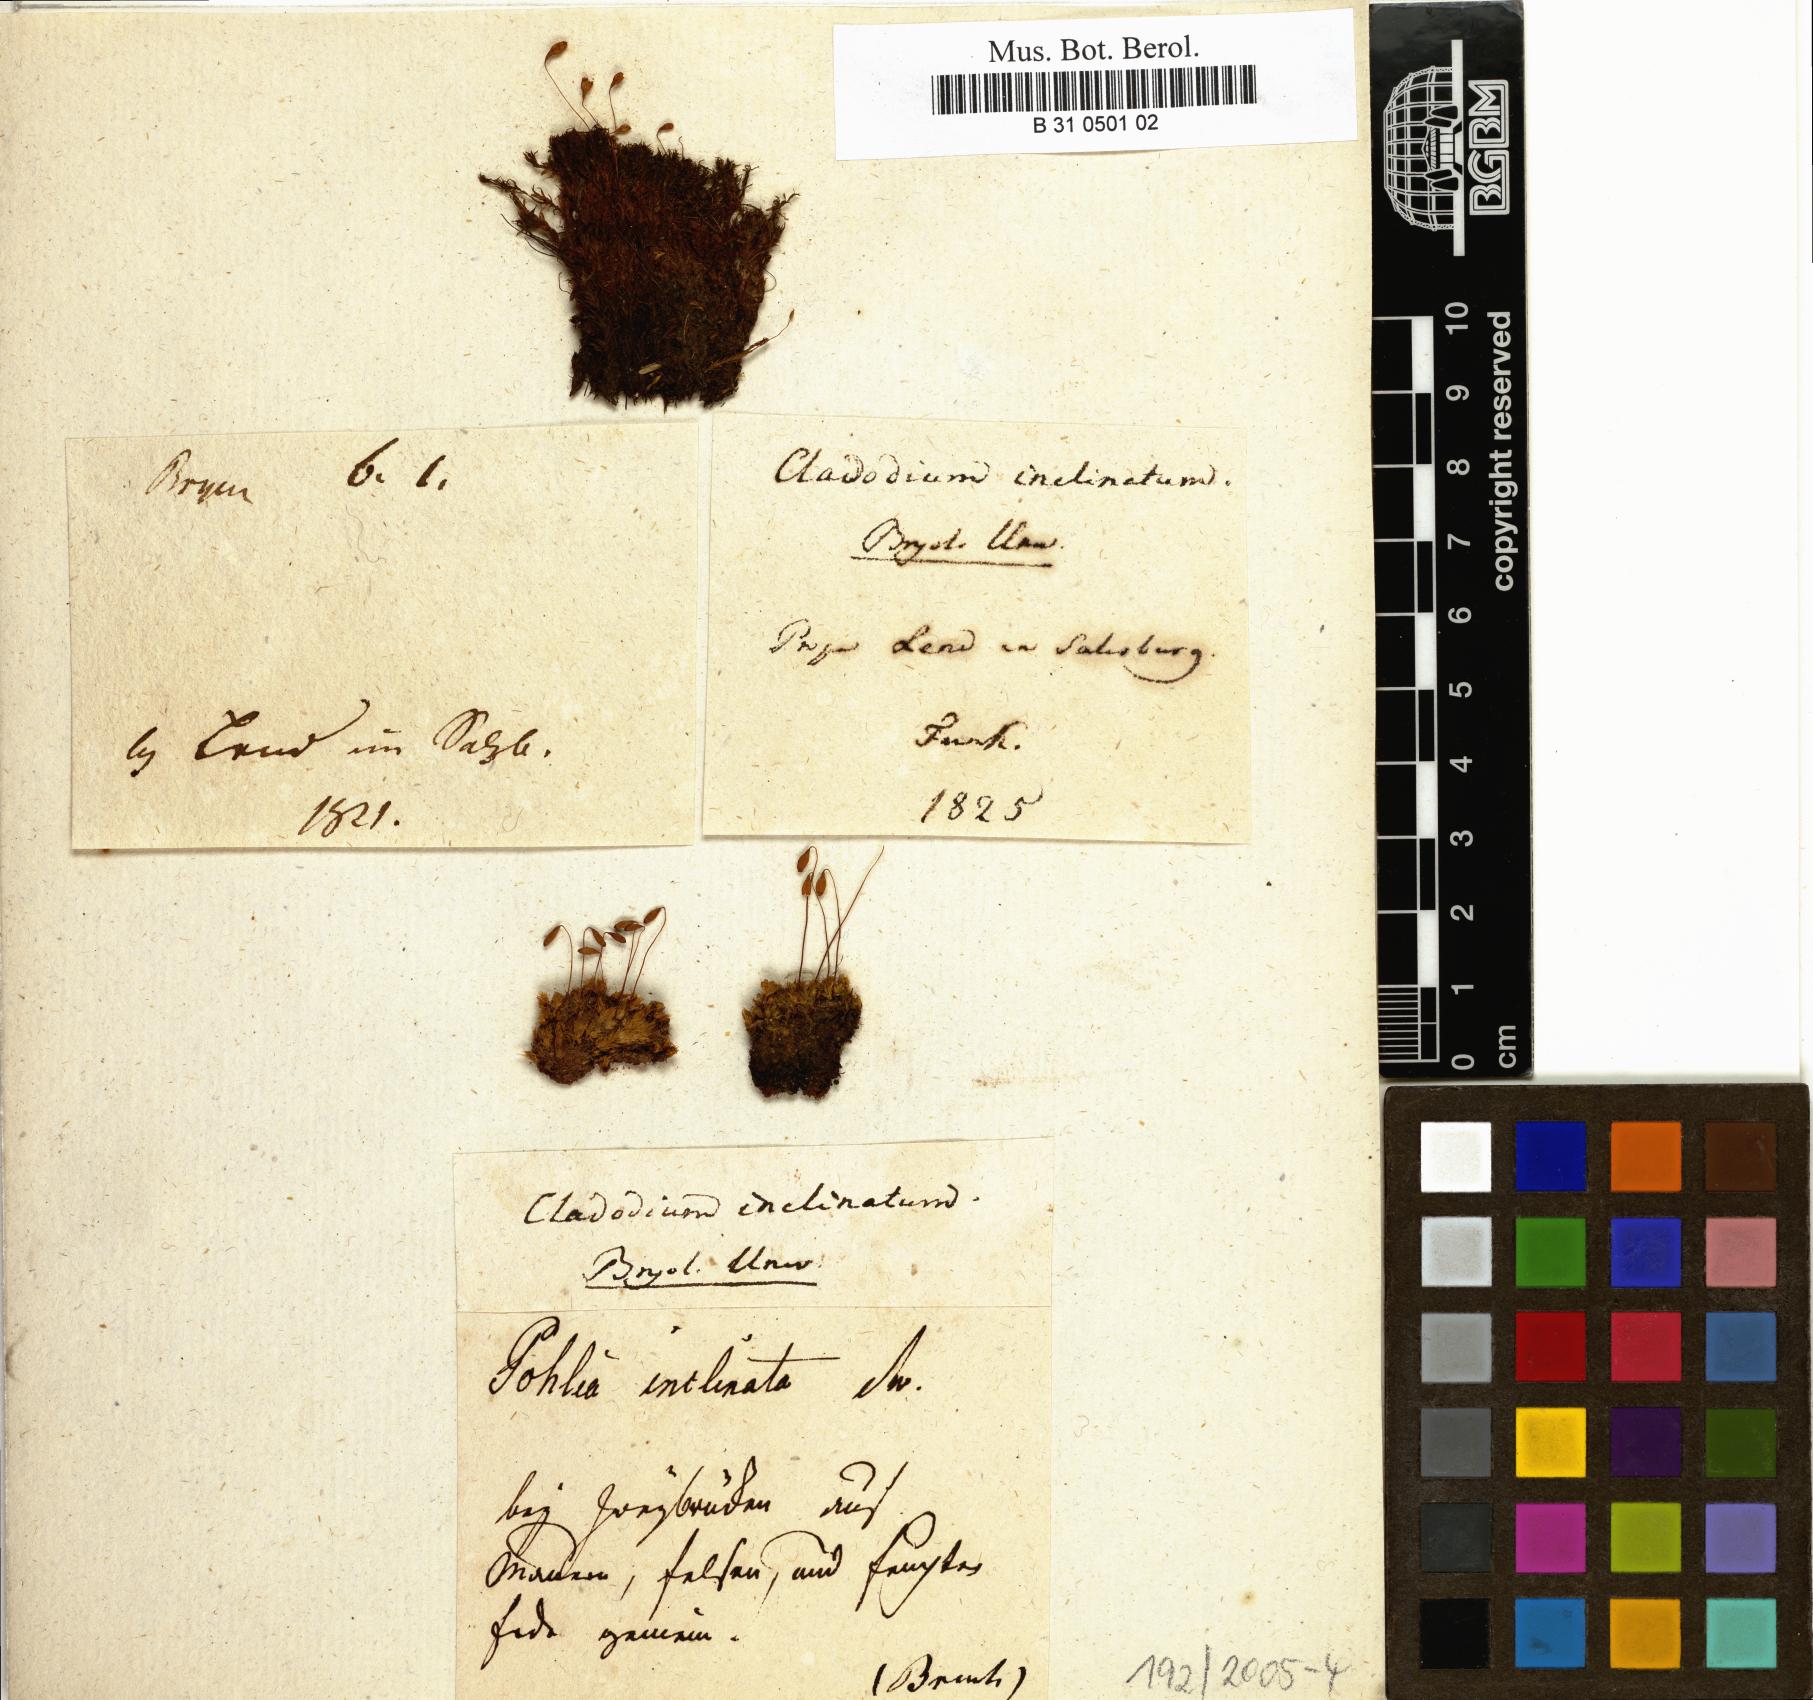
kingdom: Plantae
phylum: Bryophyta
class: Bryopsida
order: Bryales
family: Bryaceae
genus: Ptychostomum
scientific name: Ptychostomum inclinatum
